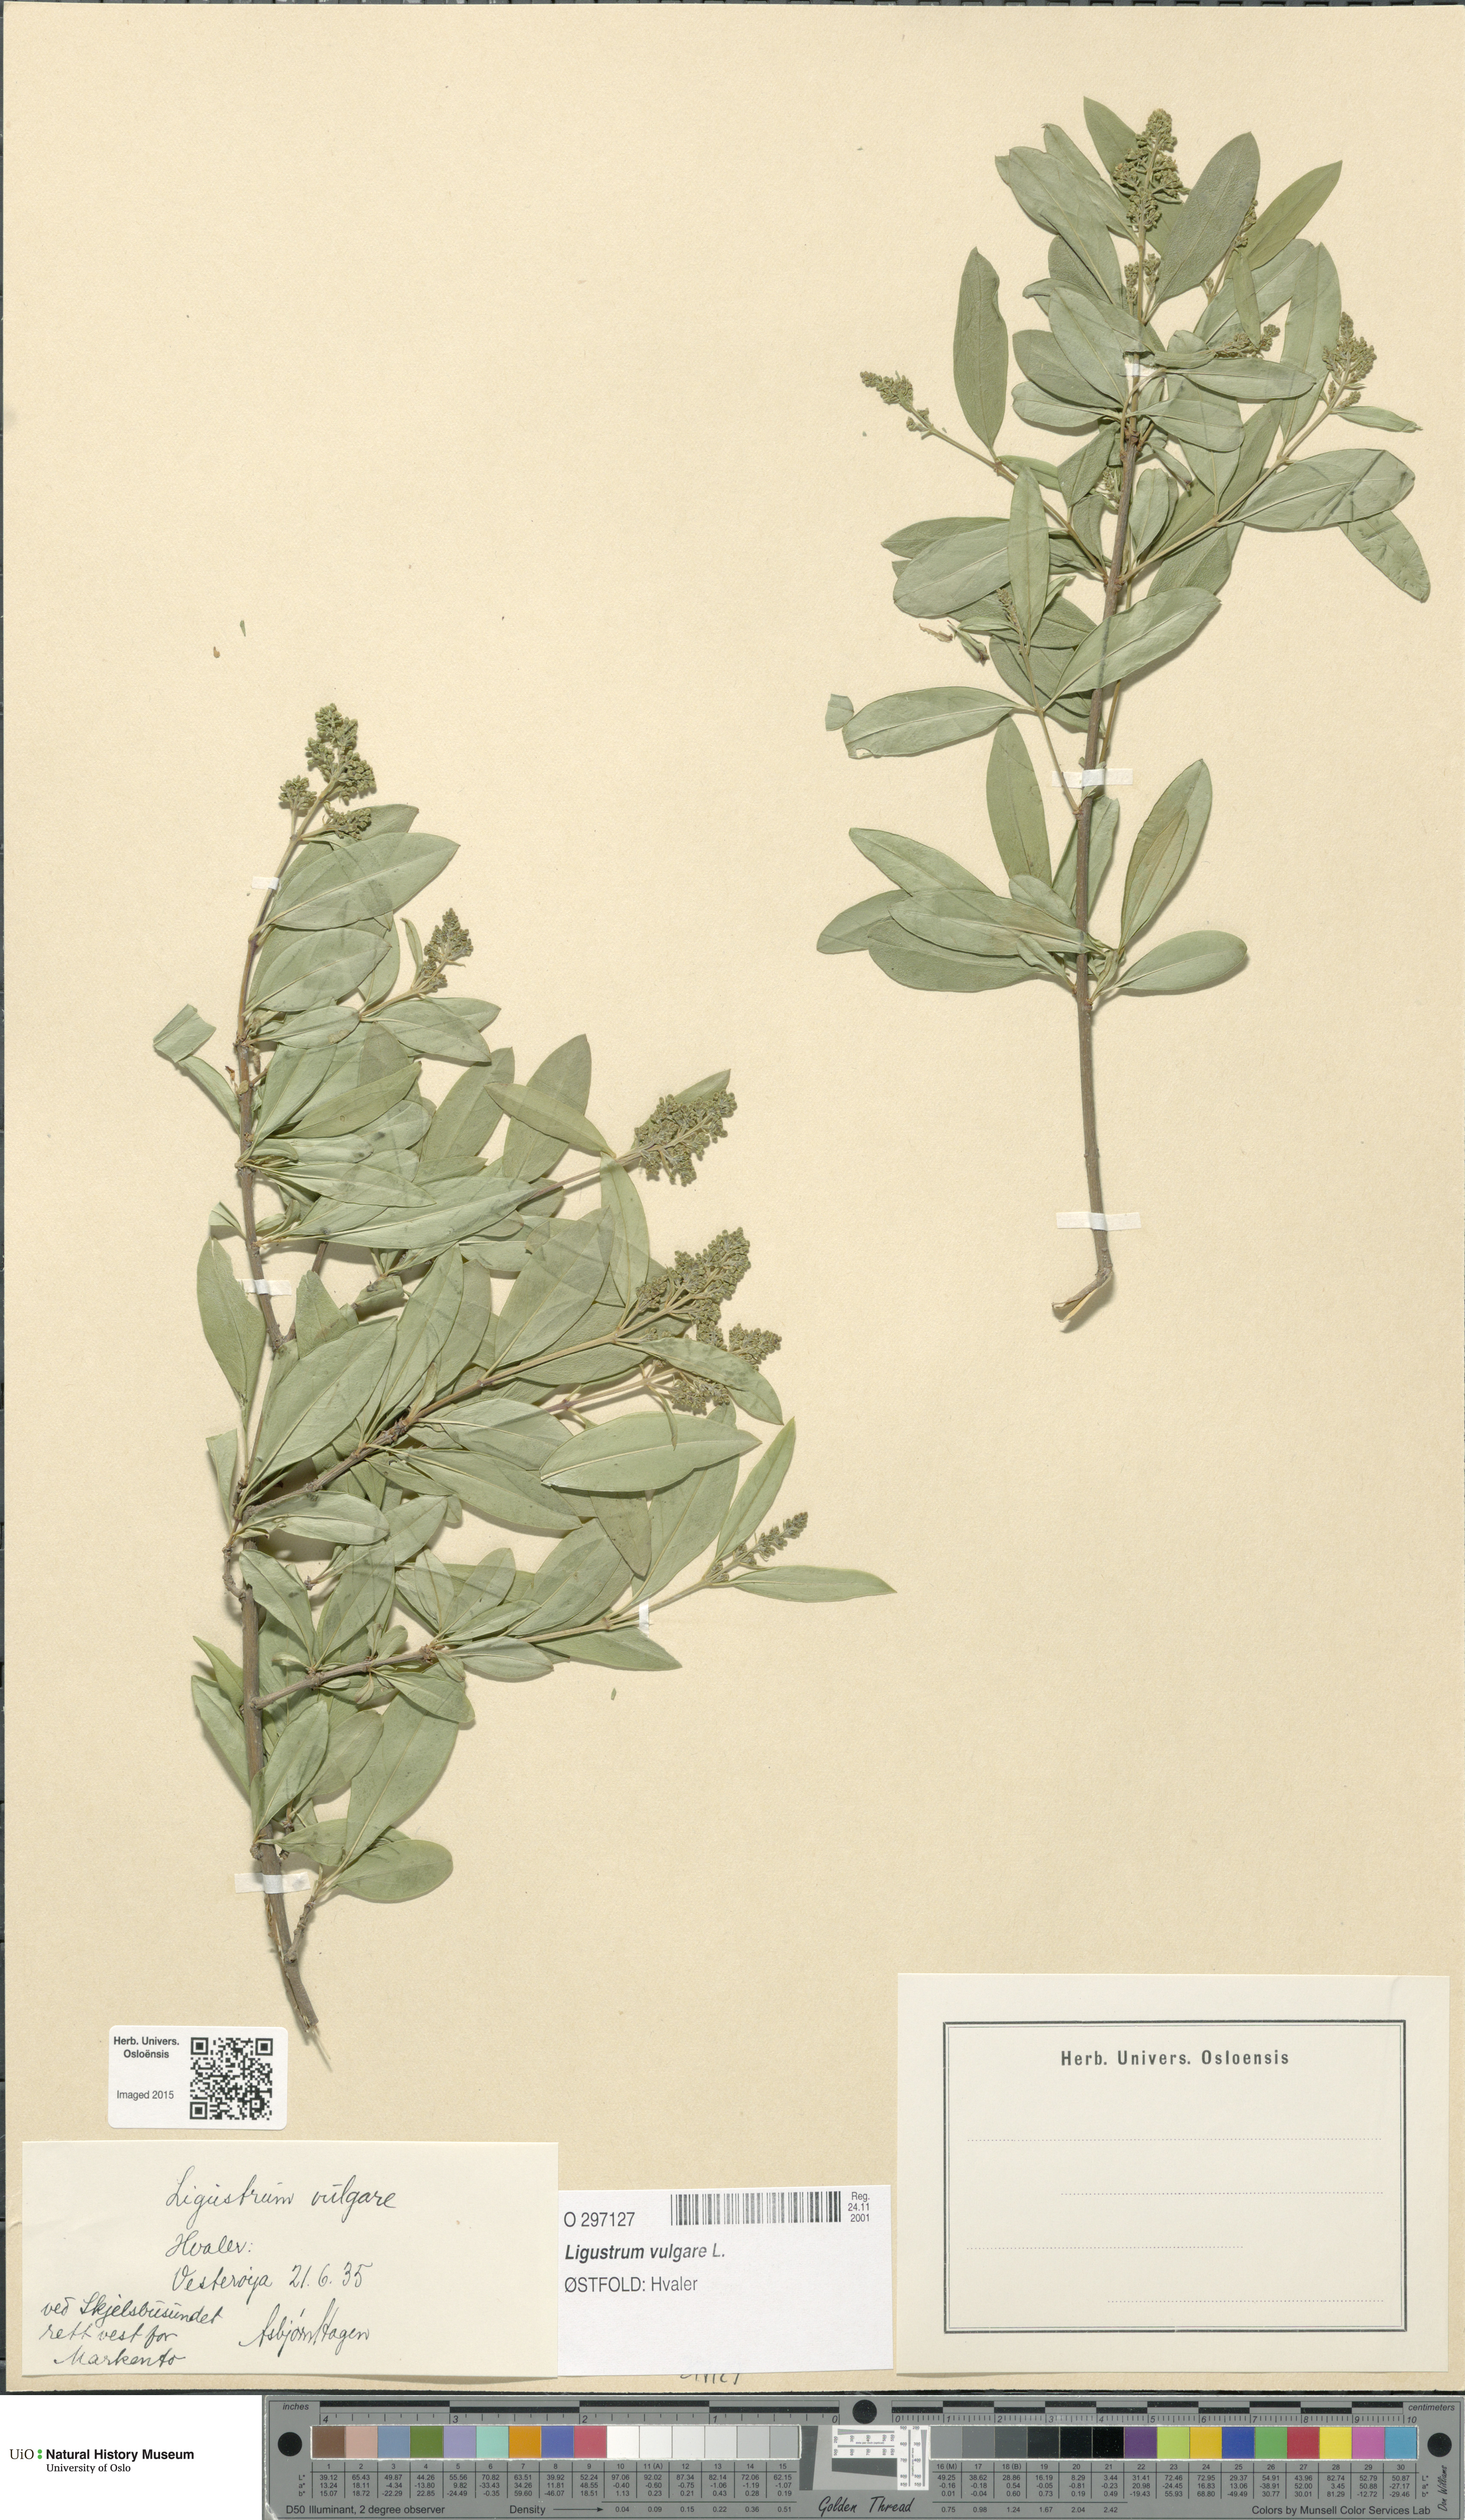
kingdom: Plantae
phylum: Tracheophyta
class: Magnoliopsida
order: Lamiales
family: Oleaceae
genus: Ligustrum
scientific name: Ligustrum vulgare
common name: Wild privet
